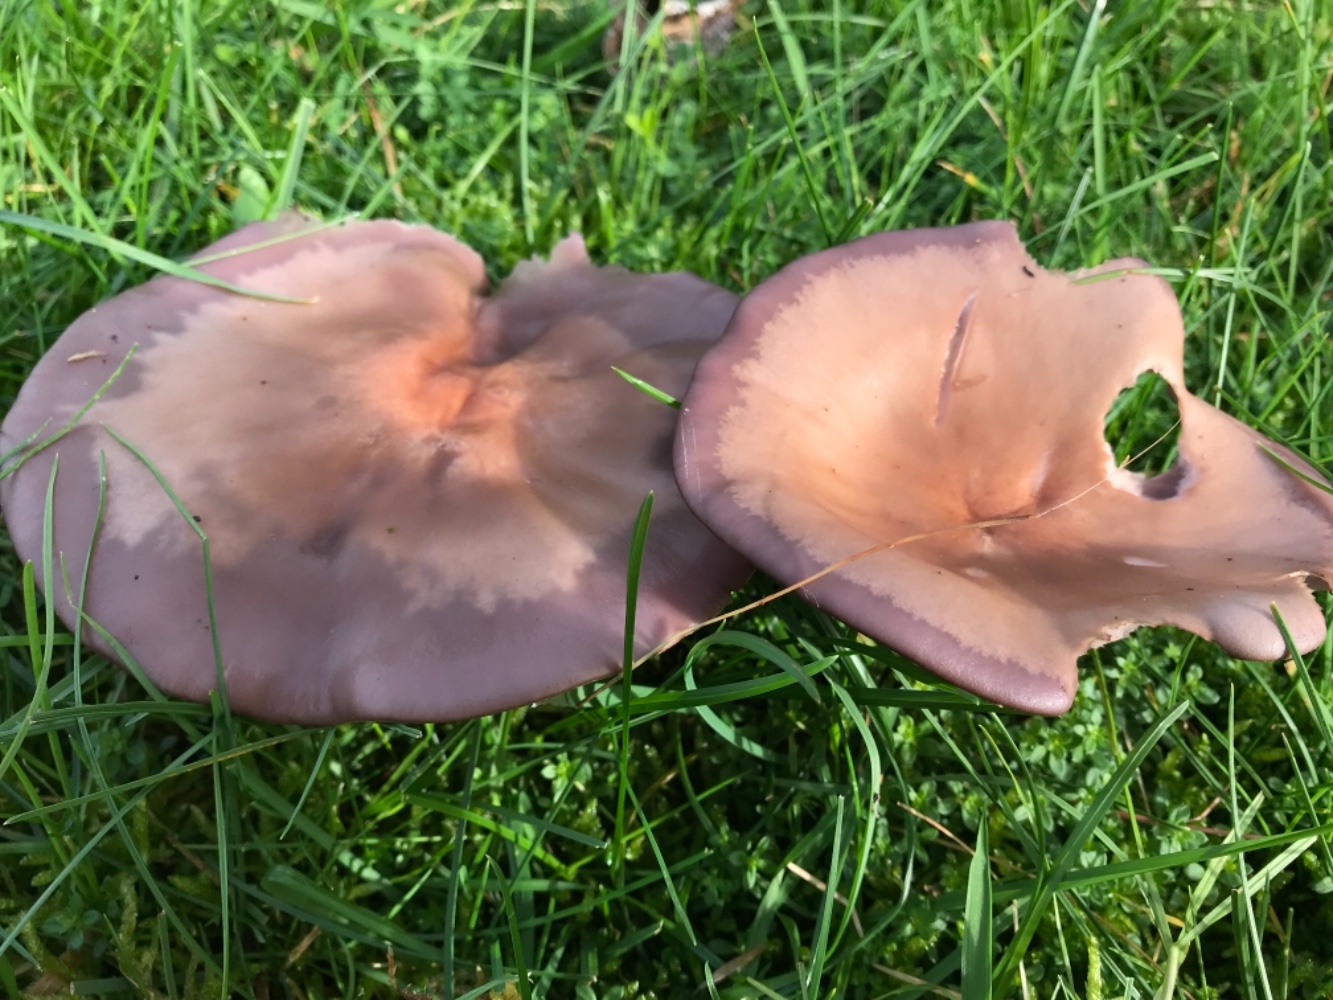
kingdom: Fungi
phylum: Basidiomycota
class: Agaricomycetes
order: Agaricales
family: Tricholomataceae
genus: Lepista
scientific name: Lepista nuda
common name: violet hekseringshat
